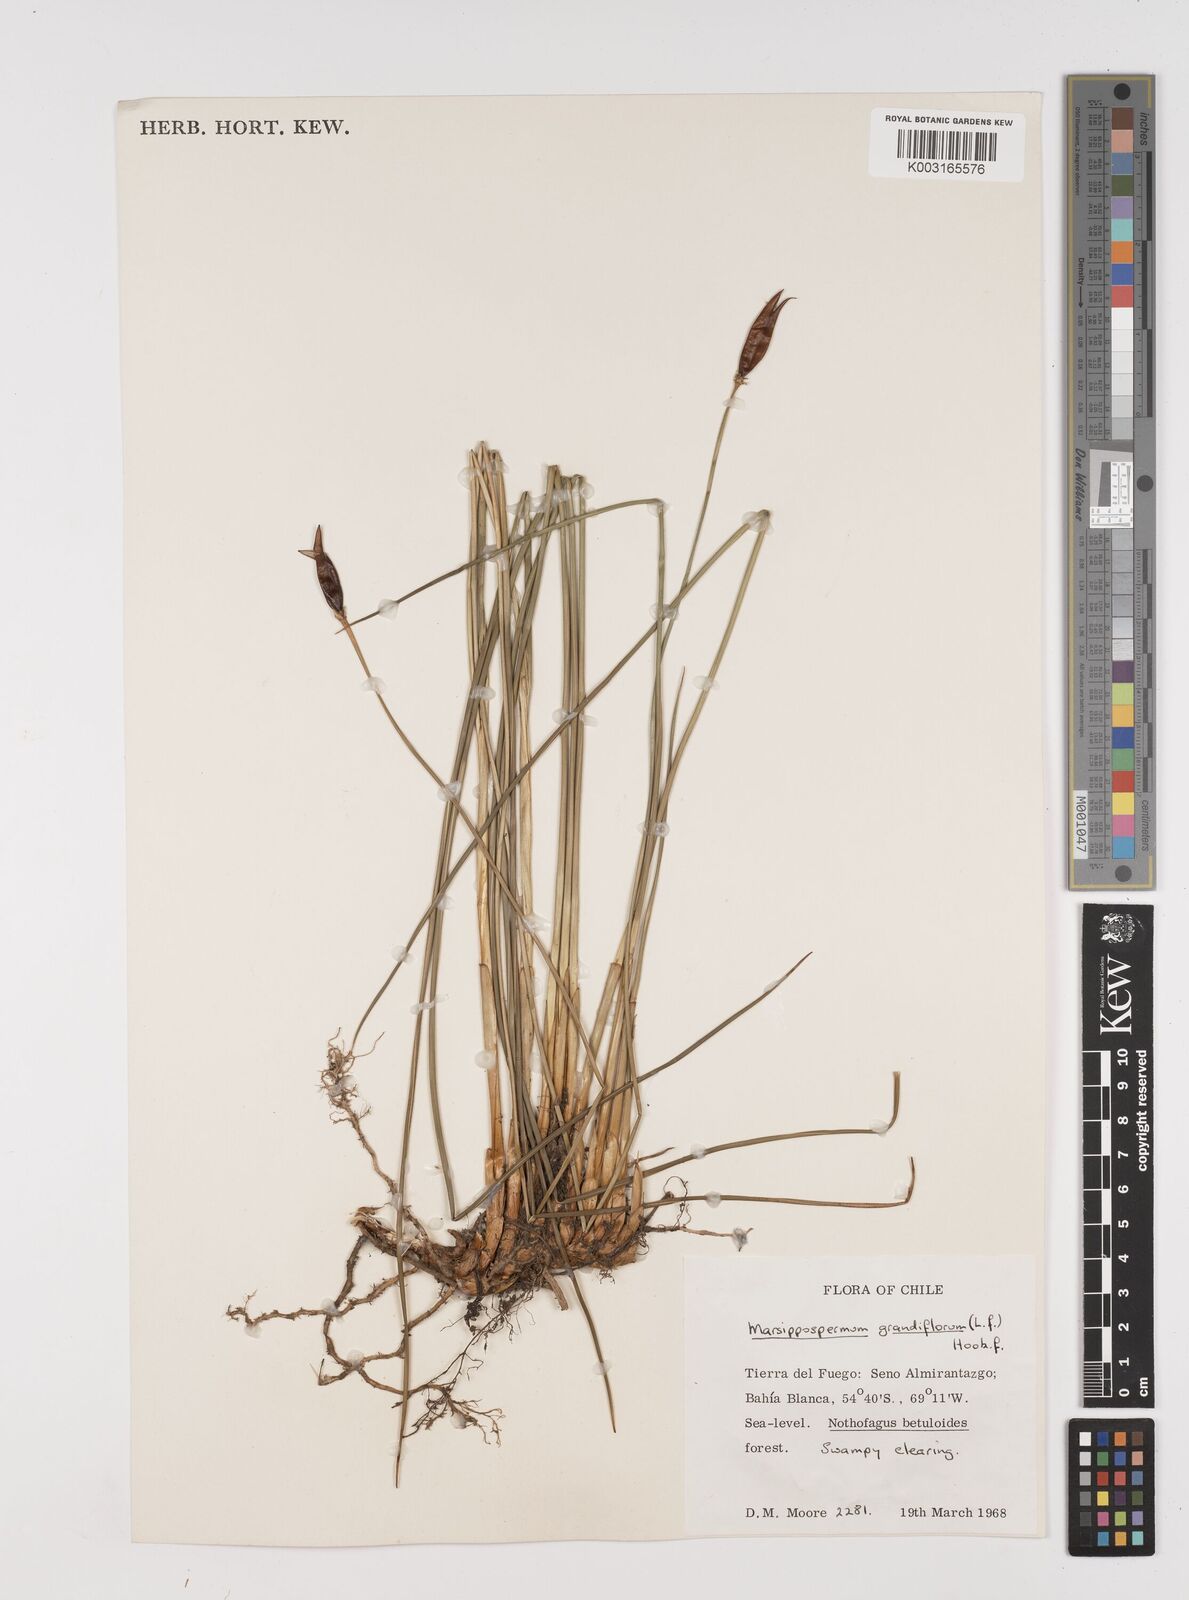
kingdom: Plantae
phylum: Tracheophyta
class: Liliopsida
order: Poales
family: Juncaceae
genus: Marsippospermum
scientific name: Marsippospermum grandiflorum
